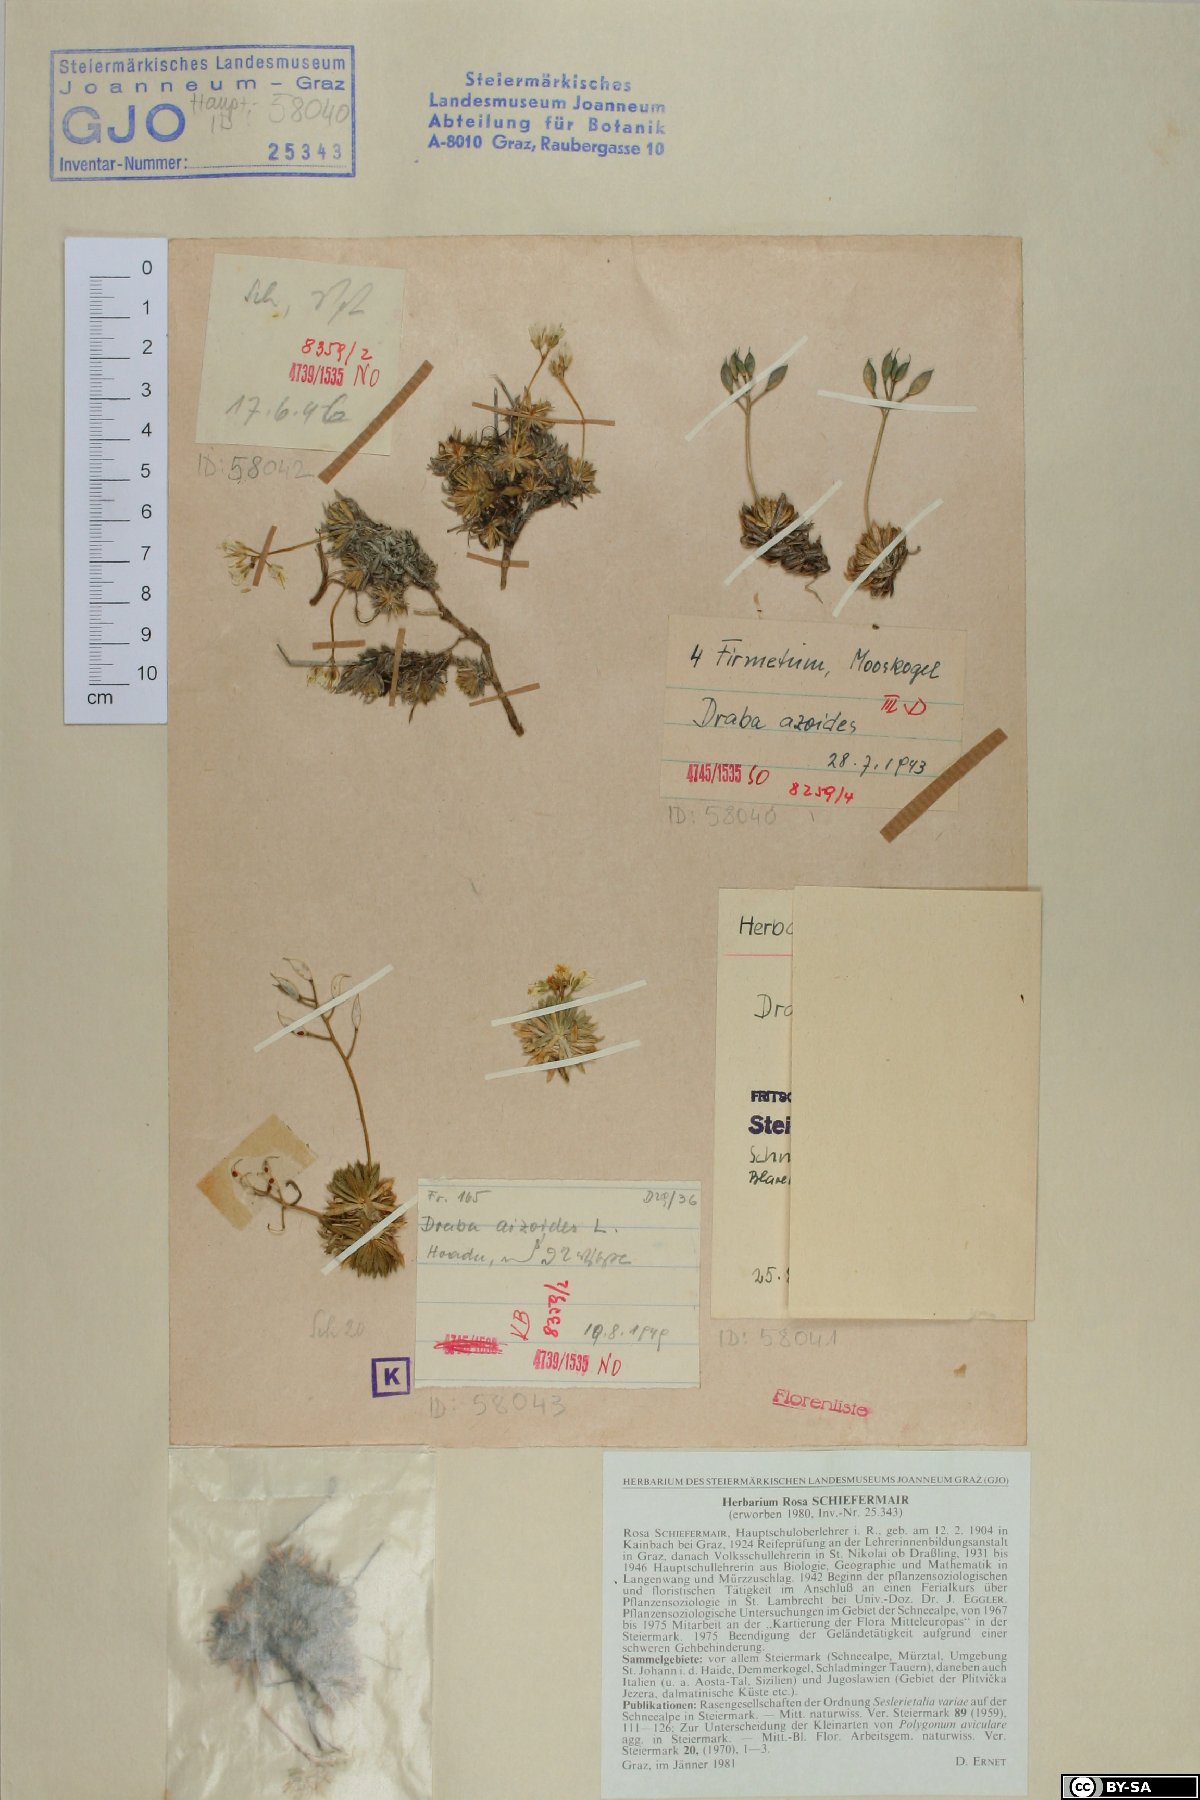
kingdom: Plantae
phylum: Tracheophyta
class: Magnoliopsida
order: Brassicales
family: Brassicaceae
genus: Draba
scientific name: Draba aizoides
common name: Yellow whitlowgrass
